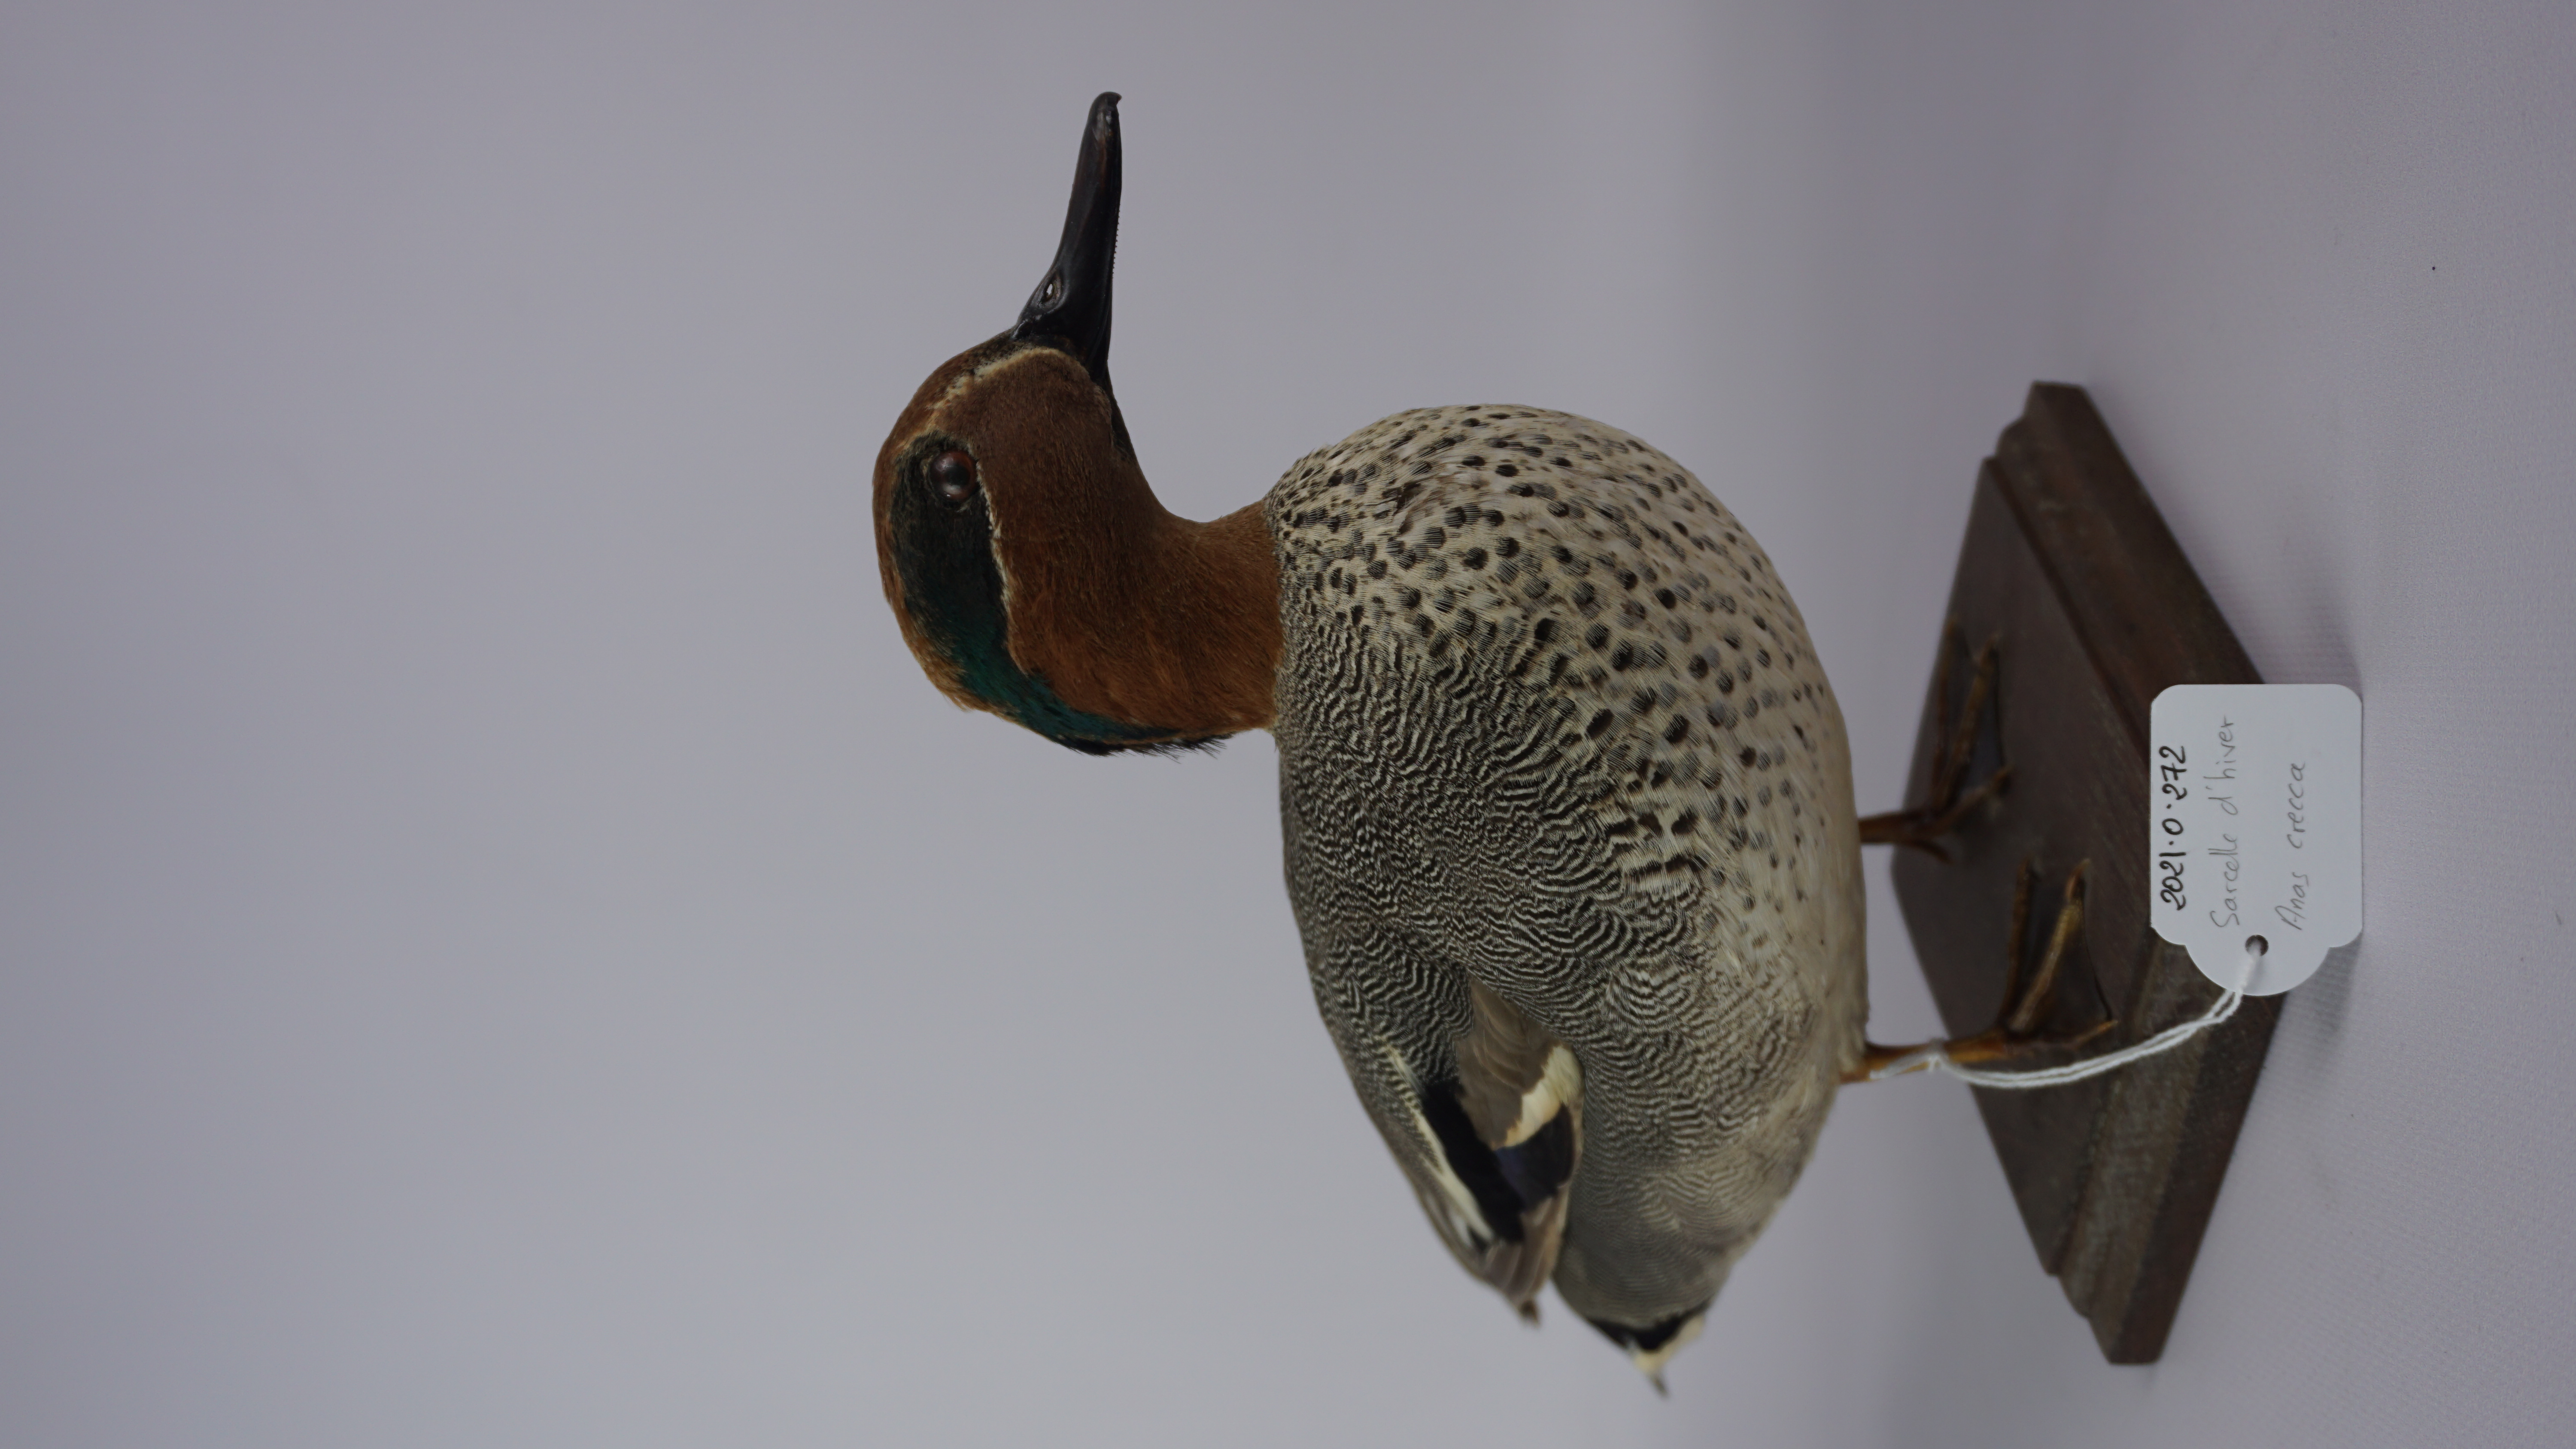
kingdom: Animalia
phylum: Chordata
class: Aves
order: Anseriformes
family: Anatidae
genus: Anas
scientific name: Anas crecca
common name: Eurasian teal
